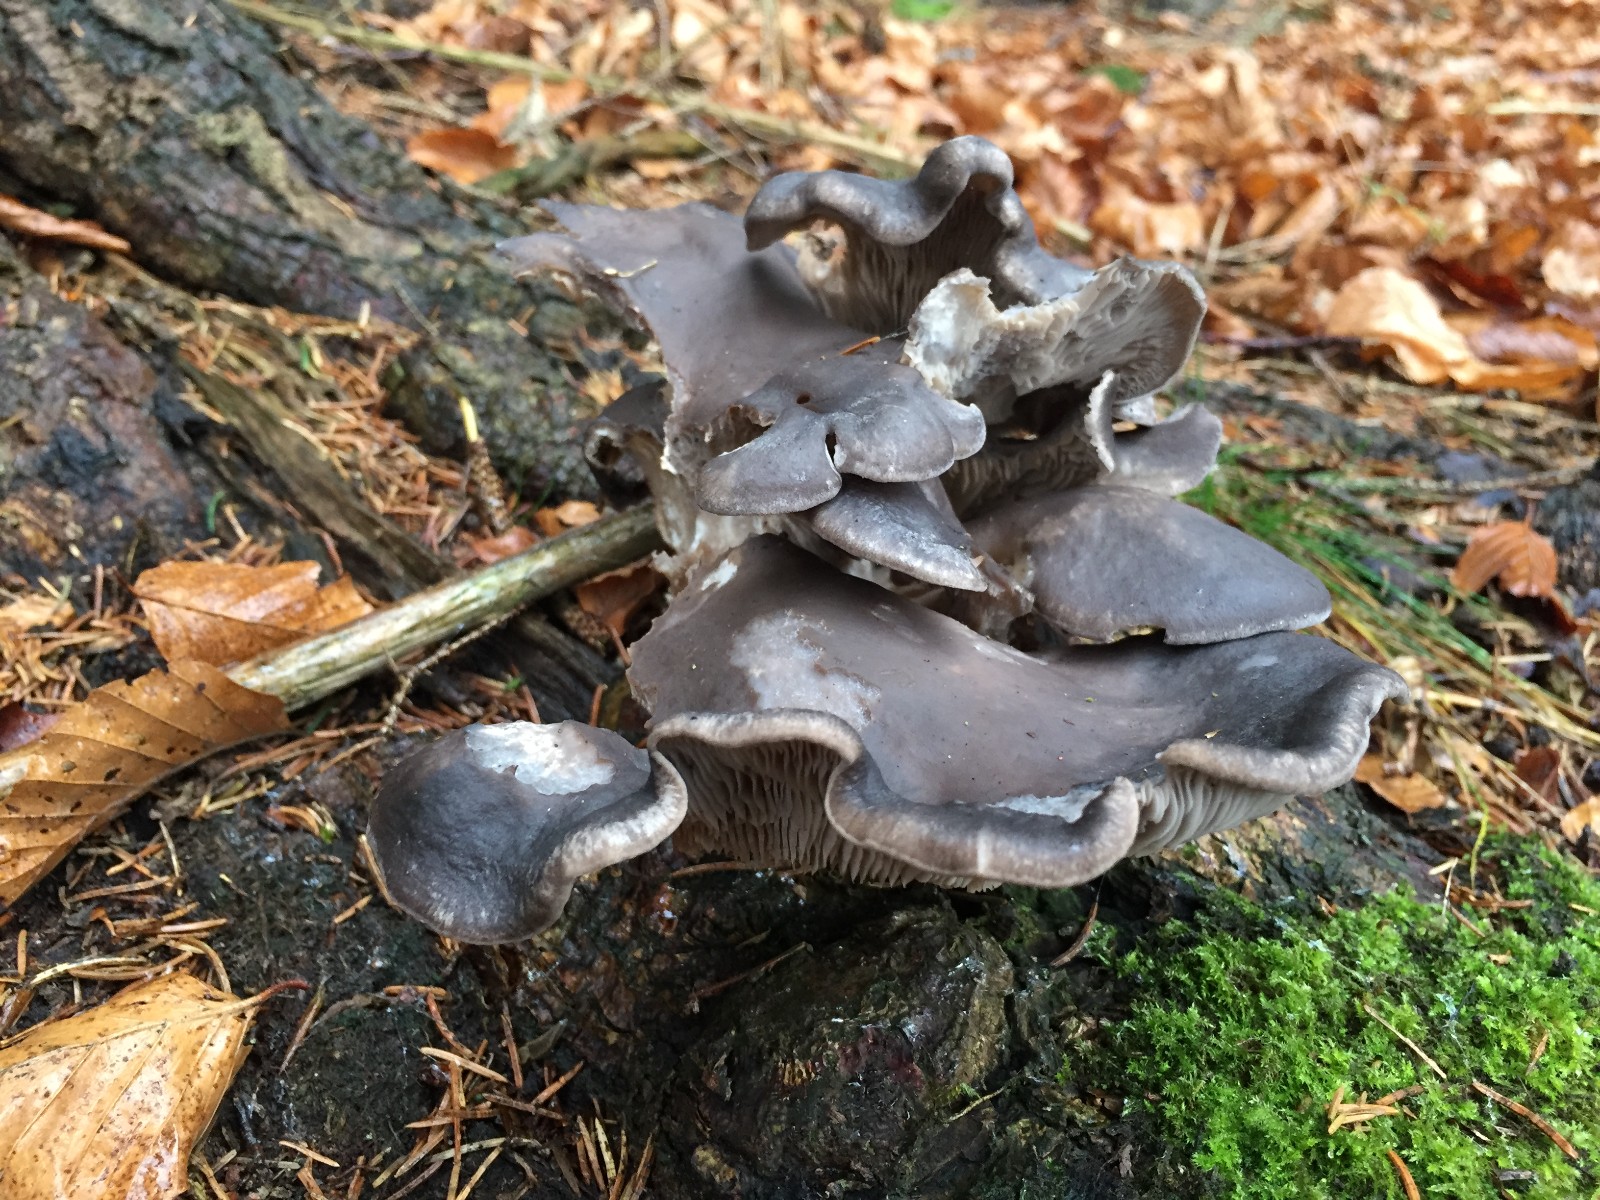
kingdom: Fungi
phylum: Basidiomycota
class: Agaricomycetes
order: Agaricales
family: Pleurotaceae
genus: Pleurotus
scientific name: Pleurotus ostreatus
